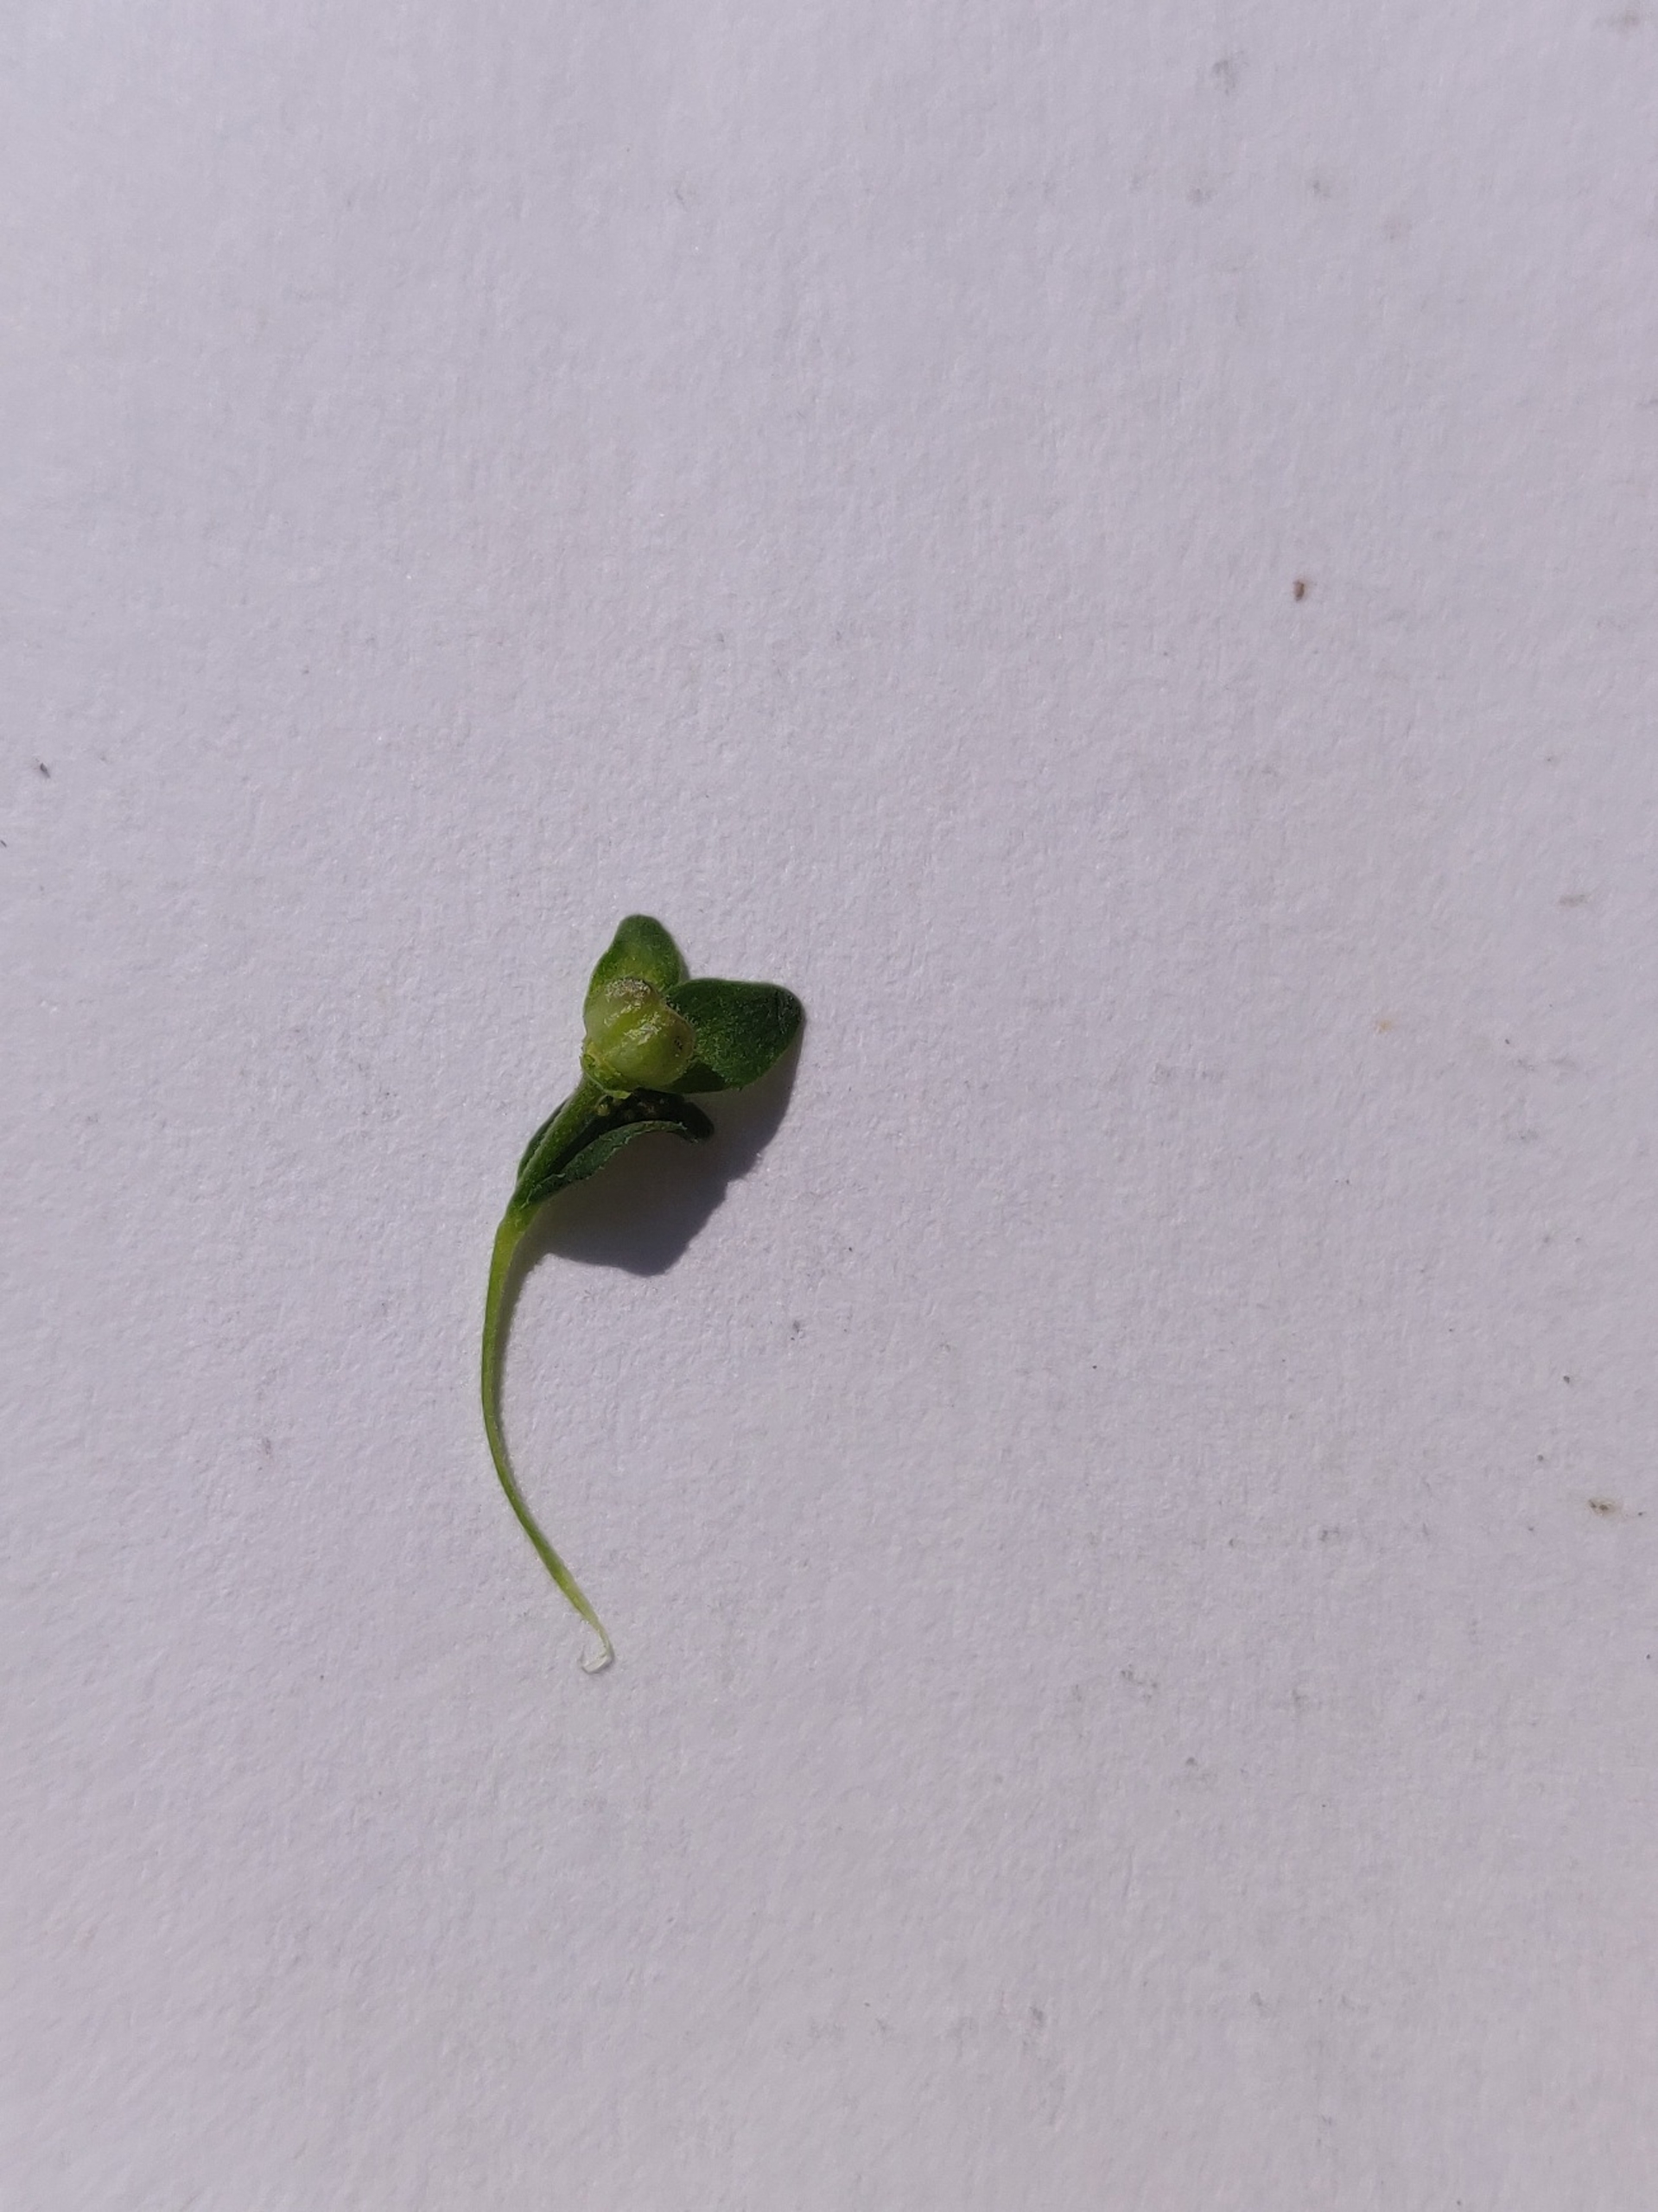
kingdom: Plantae
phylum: Tracheophyta
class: Magnoliopsida
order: Lamiales
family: Plantaginaceae
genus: Veronica
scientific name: Veronica serpyllifolia
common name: Glat ærenpris
